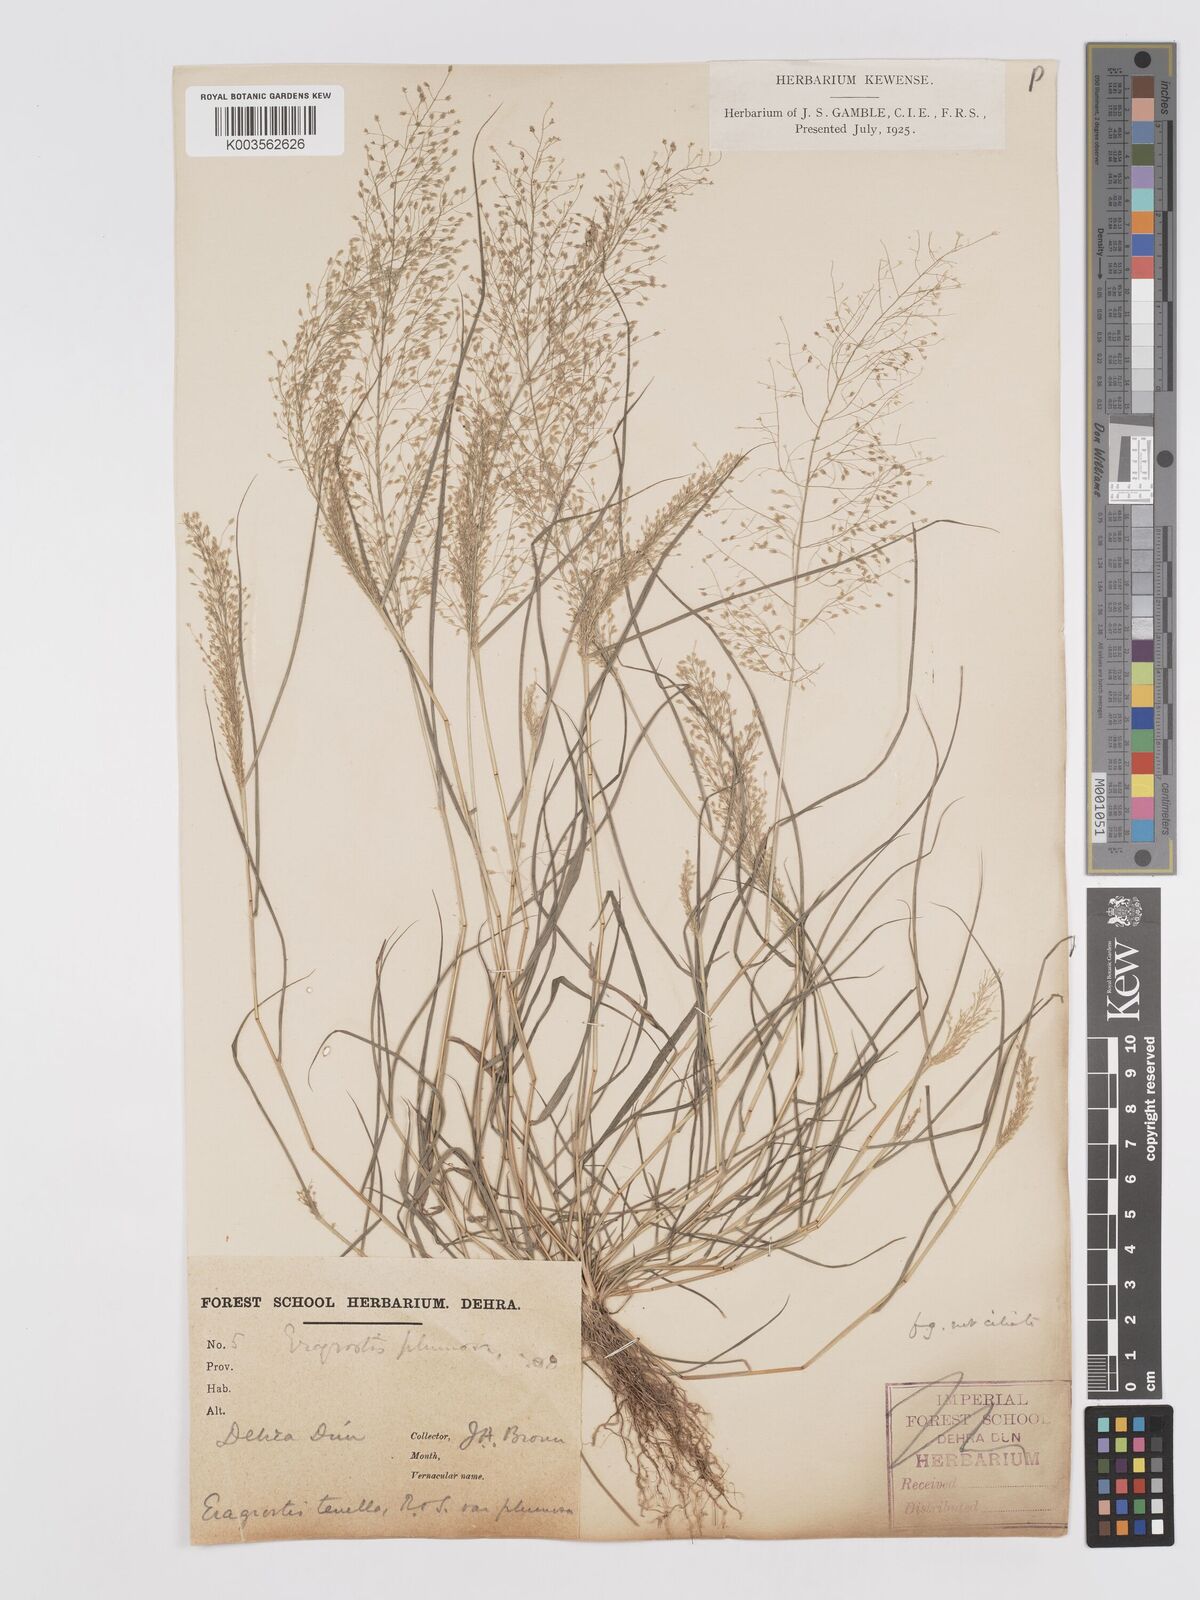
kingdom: Plantae
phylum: Tracheophyta
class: Liliopsida
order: Poales
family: Poaceae
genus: Eragrostis
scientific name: Eragrostis tenella
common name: Japanese lovegrass
